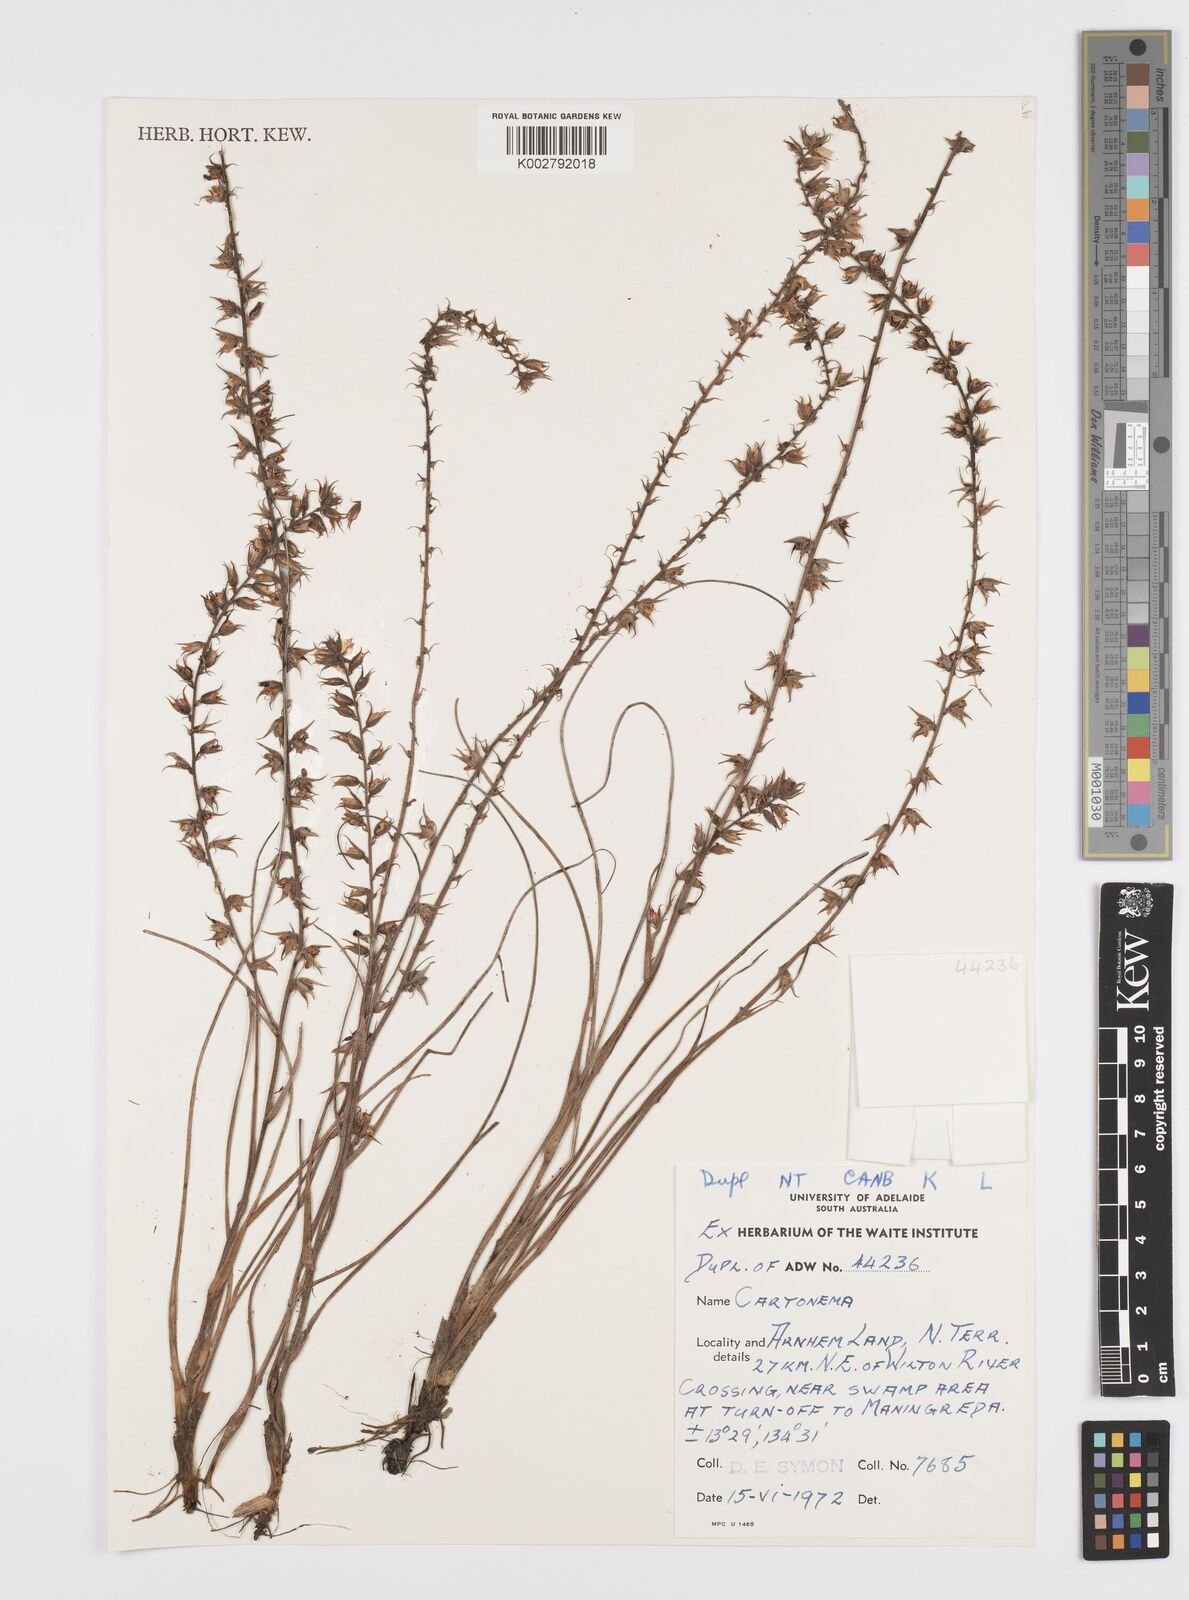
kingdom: Plantae
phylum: Tracheophyta
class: Liliopsida
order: Commelinales
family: Commelinaceae
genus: Cartonema
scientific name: Cartonema
